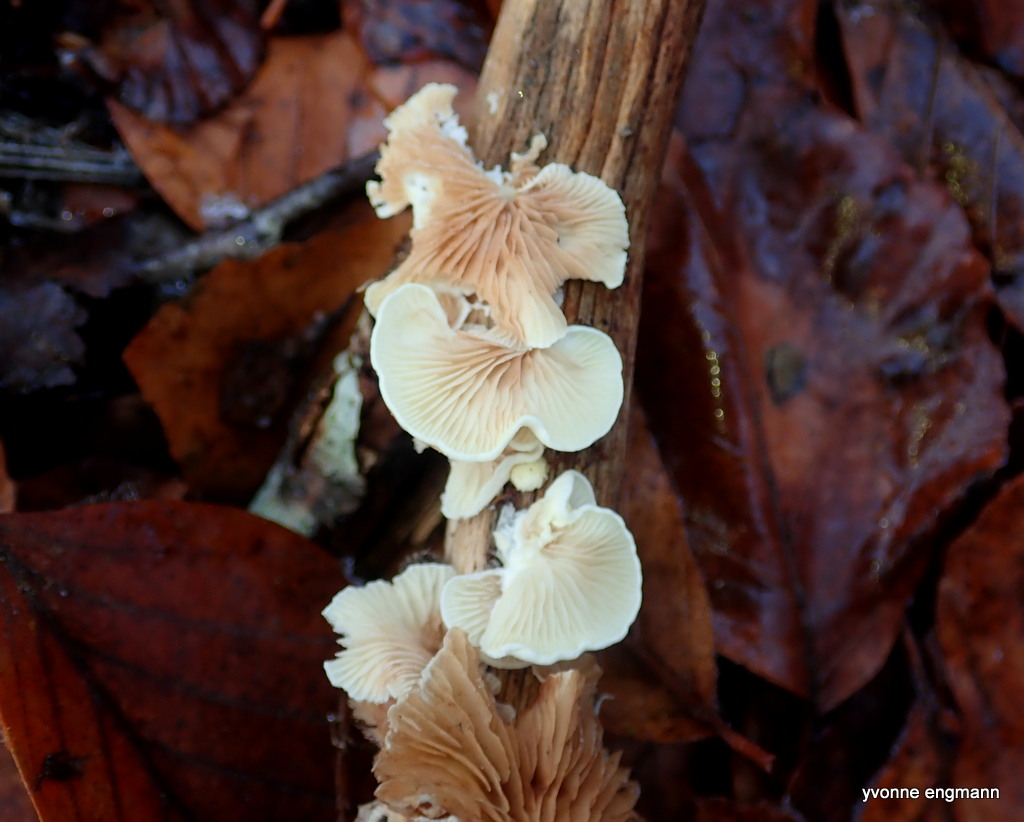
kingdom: Fungi
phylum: Basidiomycota
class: Agaricomycetes
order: Agaricales
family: Crepidotaceae
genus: Crepidotus
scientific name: Crepidotus
